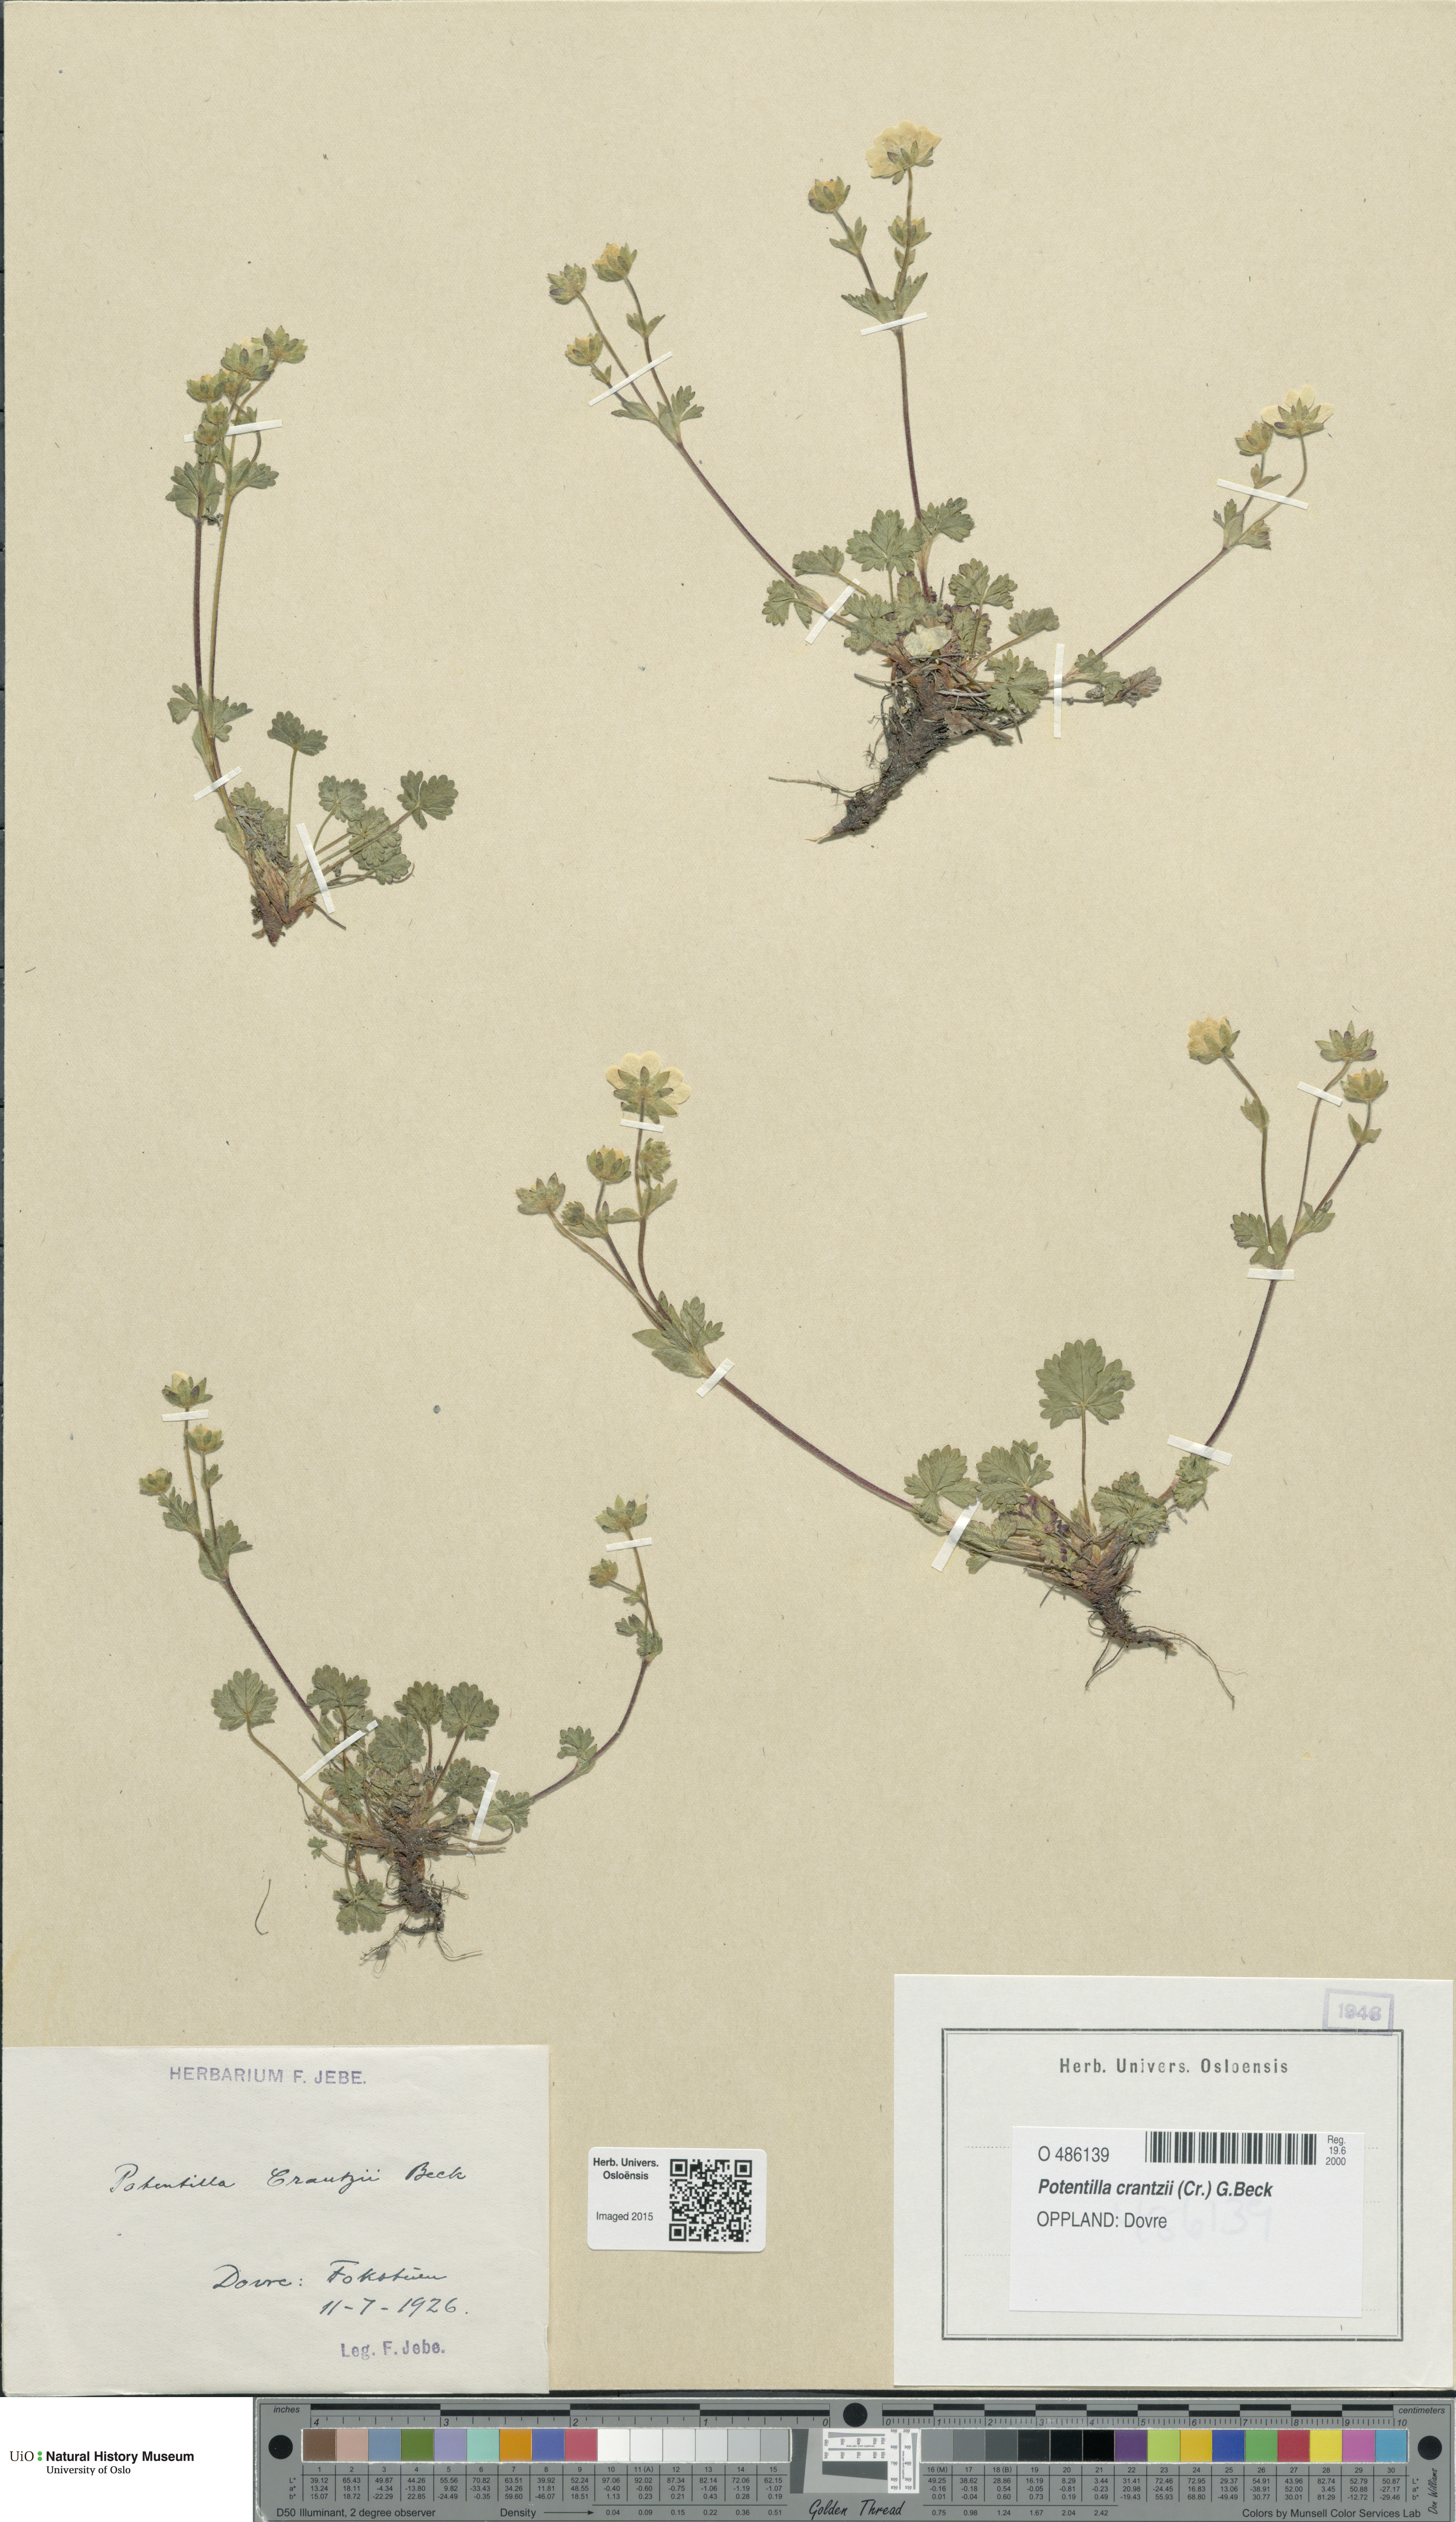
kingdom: Plantae
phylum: Tracheophyta
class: Magnoliopsida
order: Rosales
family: Rosaceae
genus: Potentilla
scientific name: Potentilla crantzii
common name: Alpine cinquefoil
